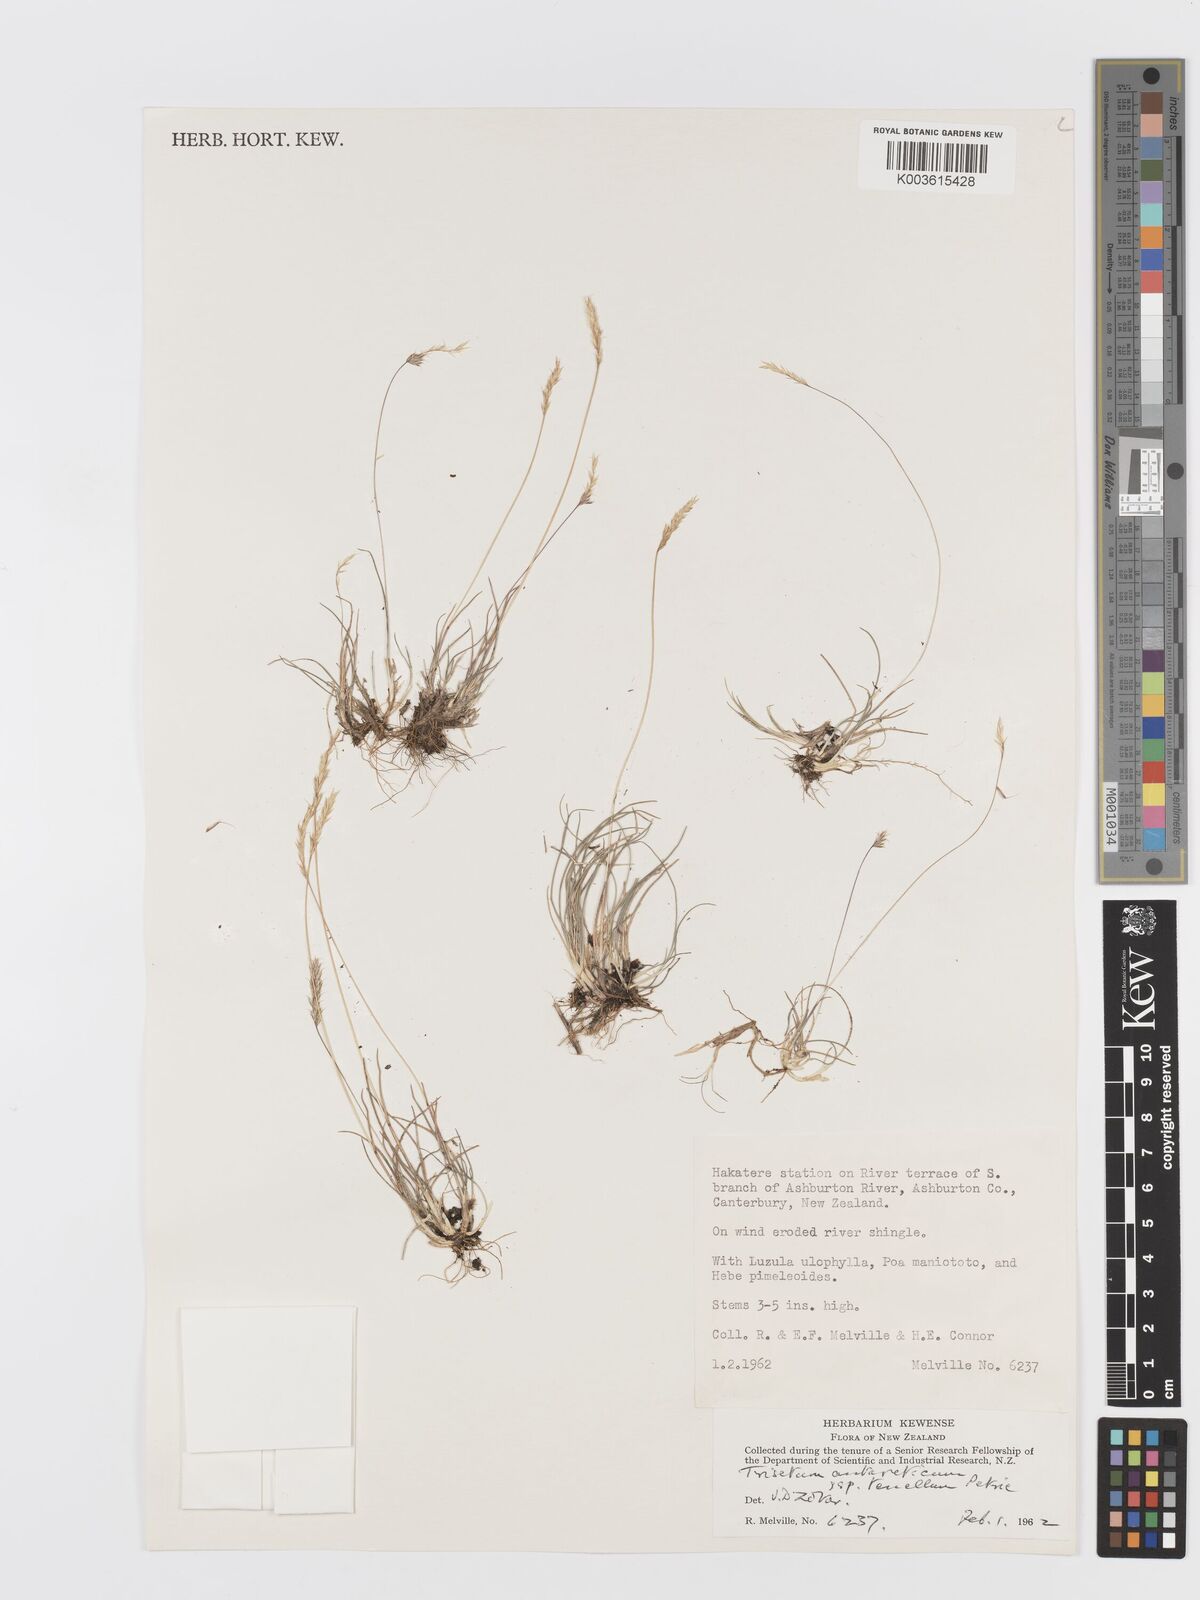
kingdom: Plantae
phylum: Tracheophyta
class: Liliopsida
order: Poales
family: Poaceae
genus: Koeleria
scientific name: Koeleria antarctica
